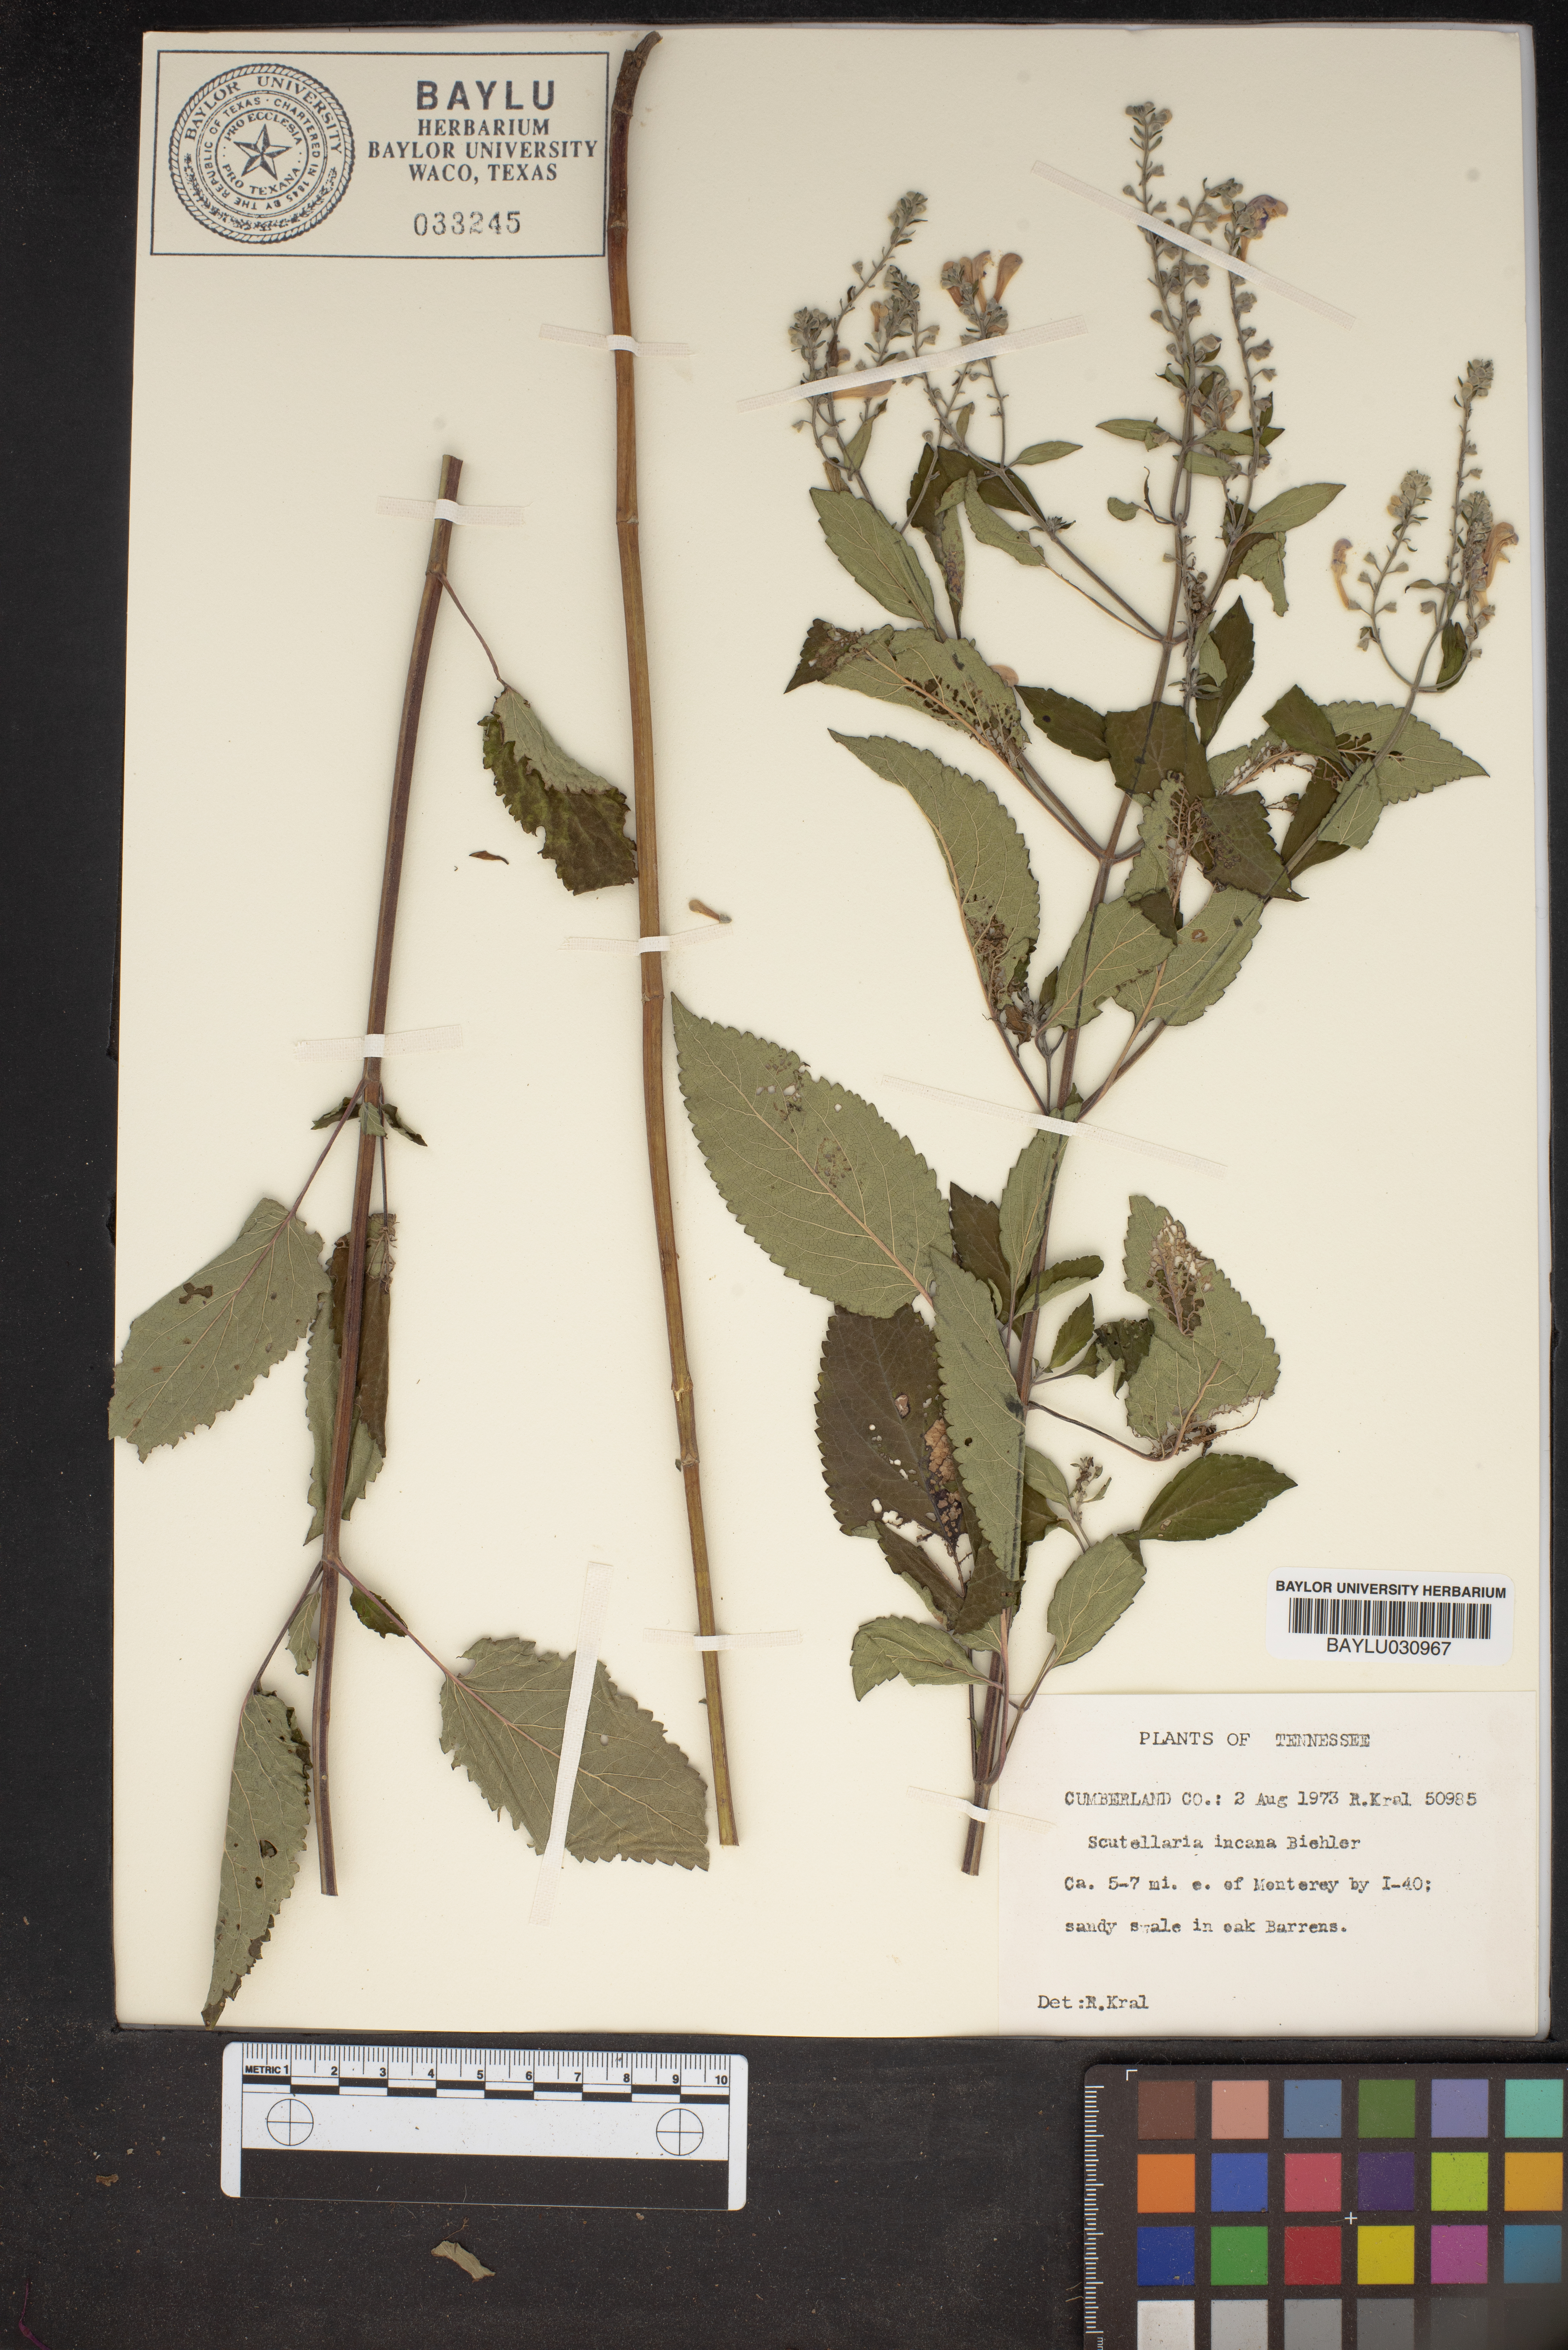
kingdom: Plantae
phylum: Tracheophyta
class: Magnoliopsida
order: Lamiales
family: Lamiaceae
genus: Scutellaria
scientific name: Scutellaria incana
